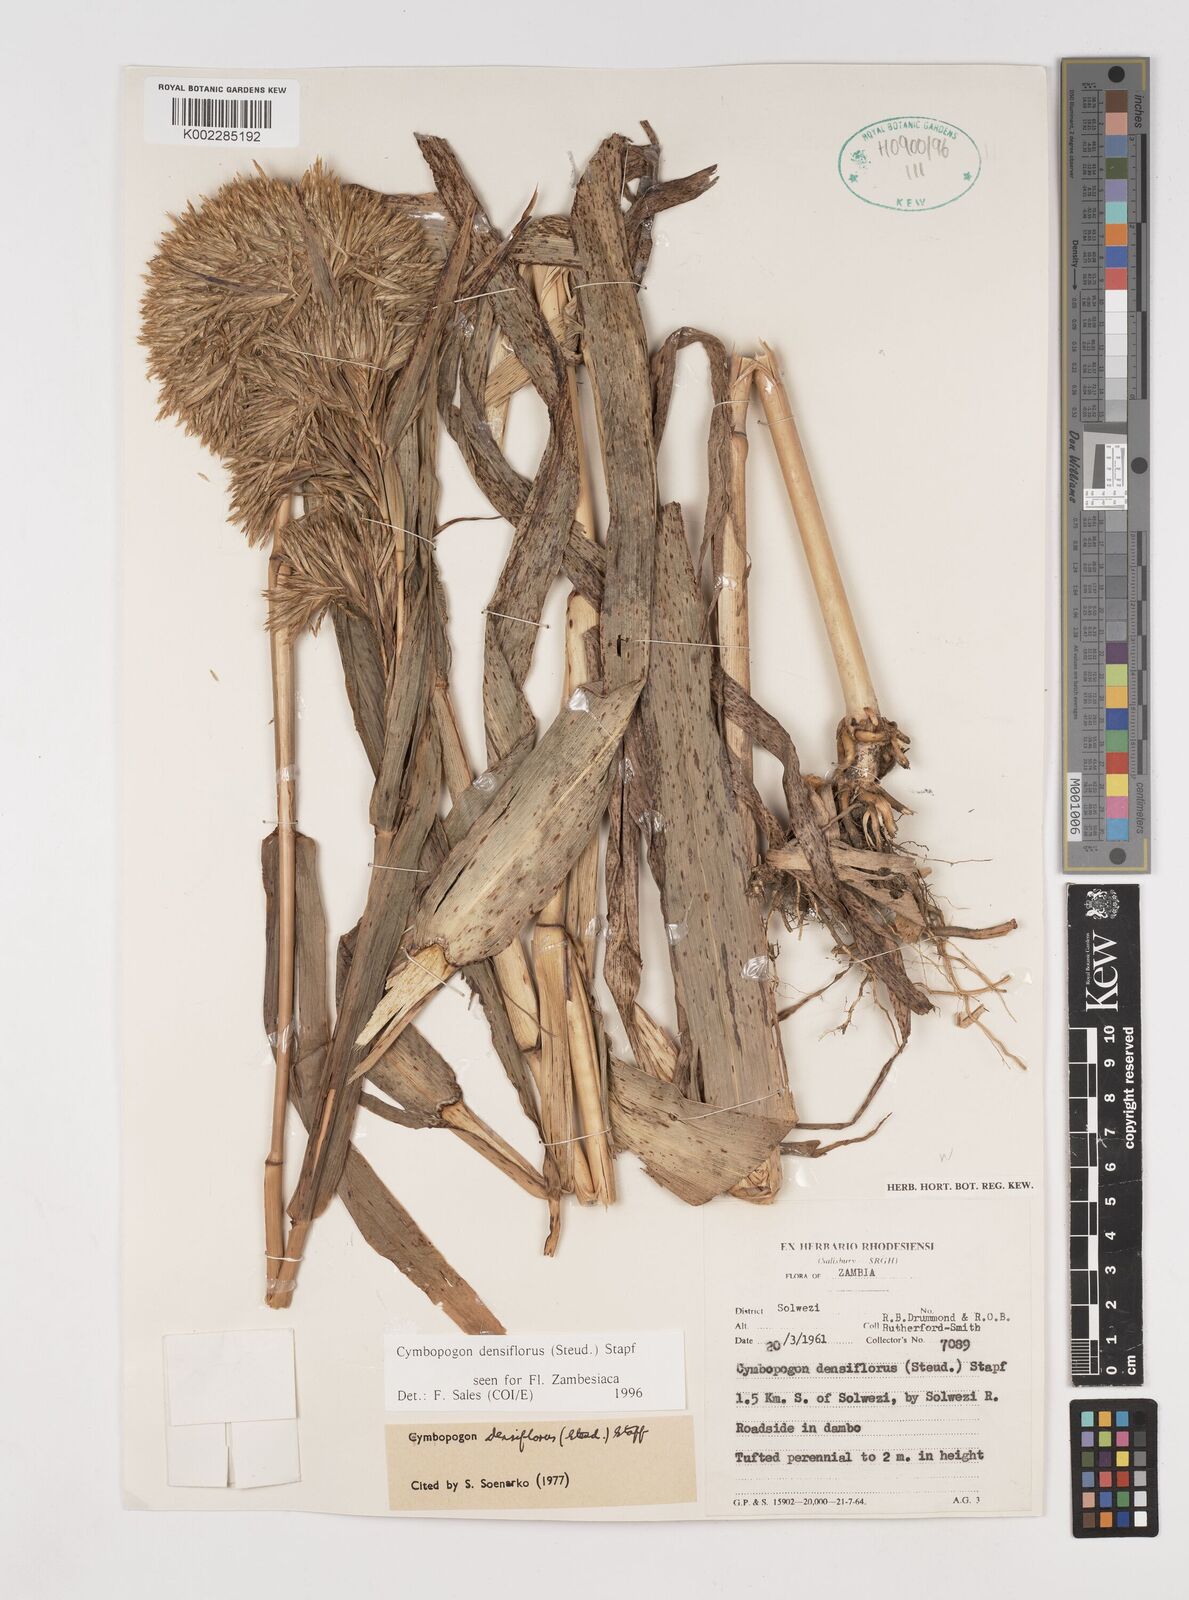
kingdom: Plantae
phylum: Tracheophyta
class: Liliopsida
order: Poales
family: Poaceae
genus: Cymbopogon
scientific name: Cymbopogon densiflorus
